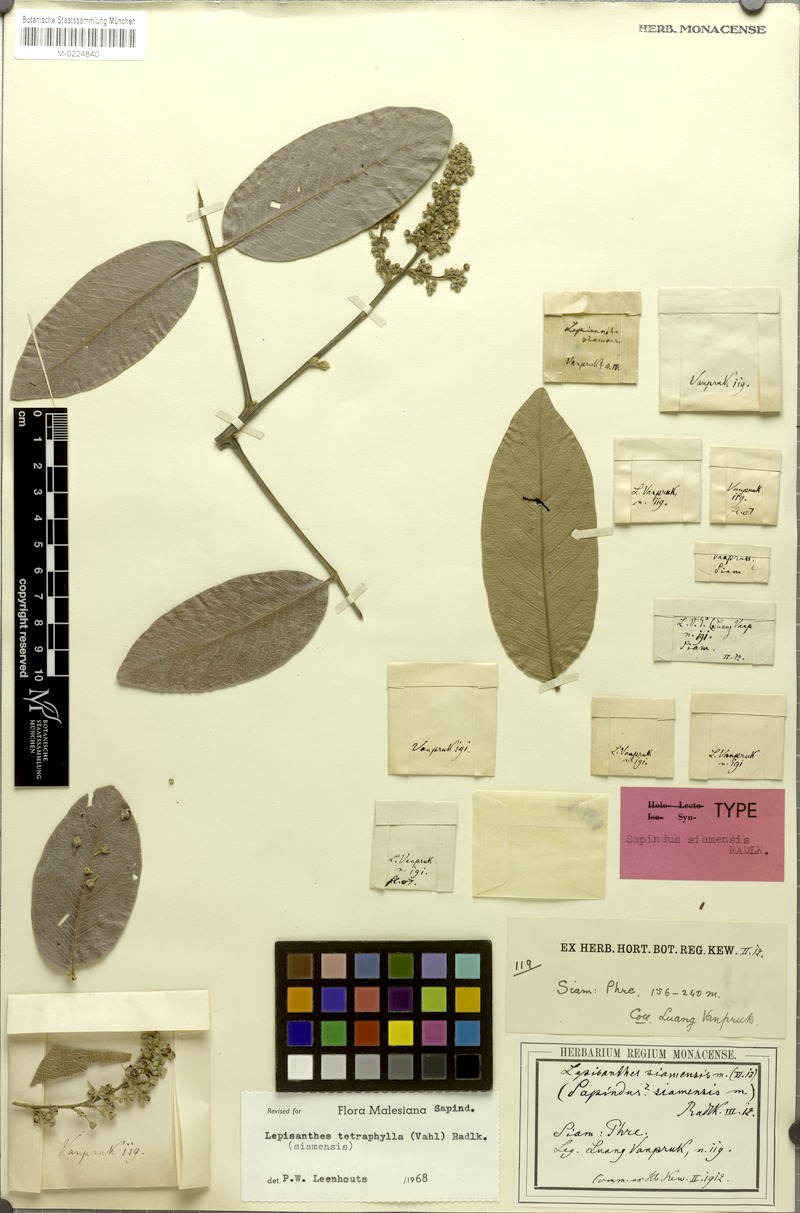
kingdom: Plantae
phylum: Tracheophyta
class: Magnoliopsida
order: Sapindales
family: Sapindaceae
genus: Pometia
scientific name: Pometia ridleyi
